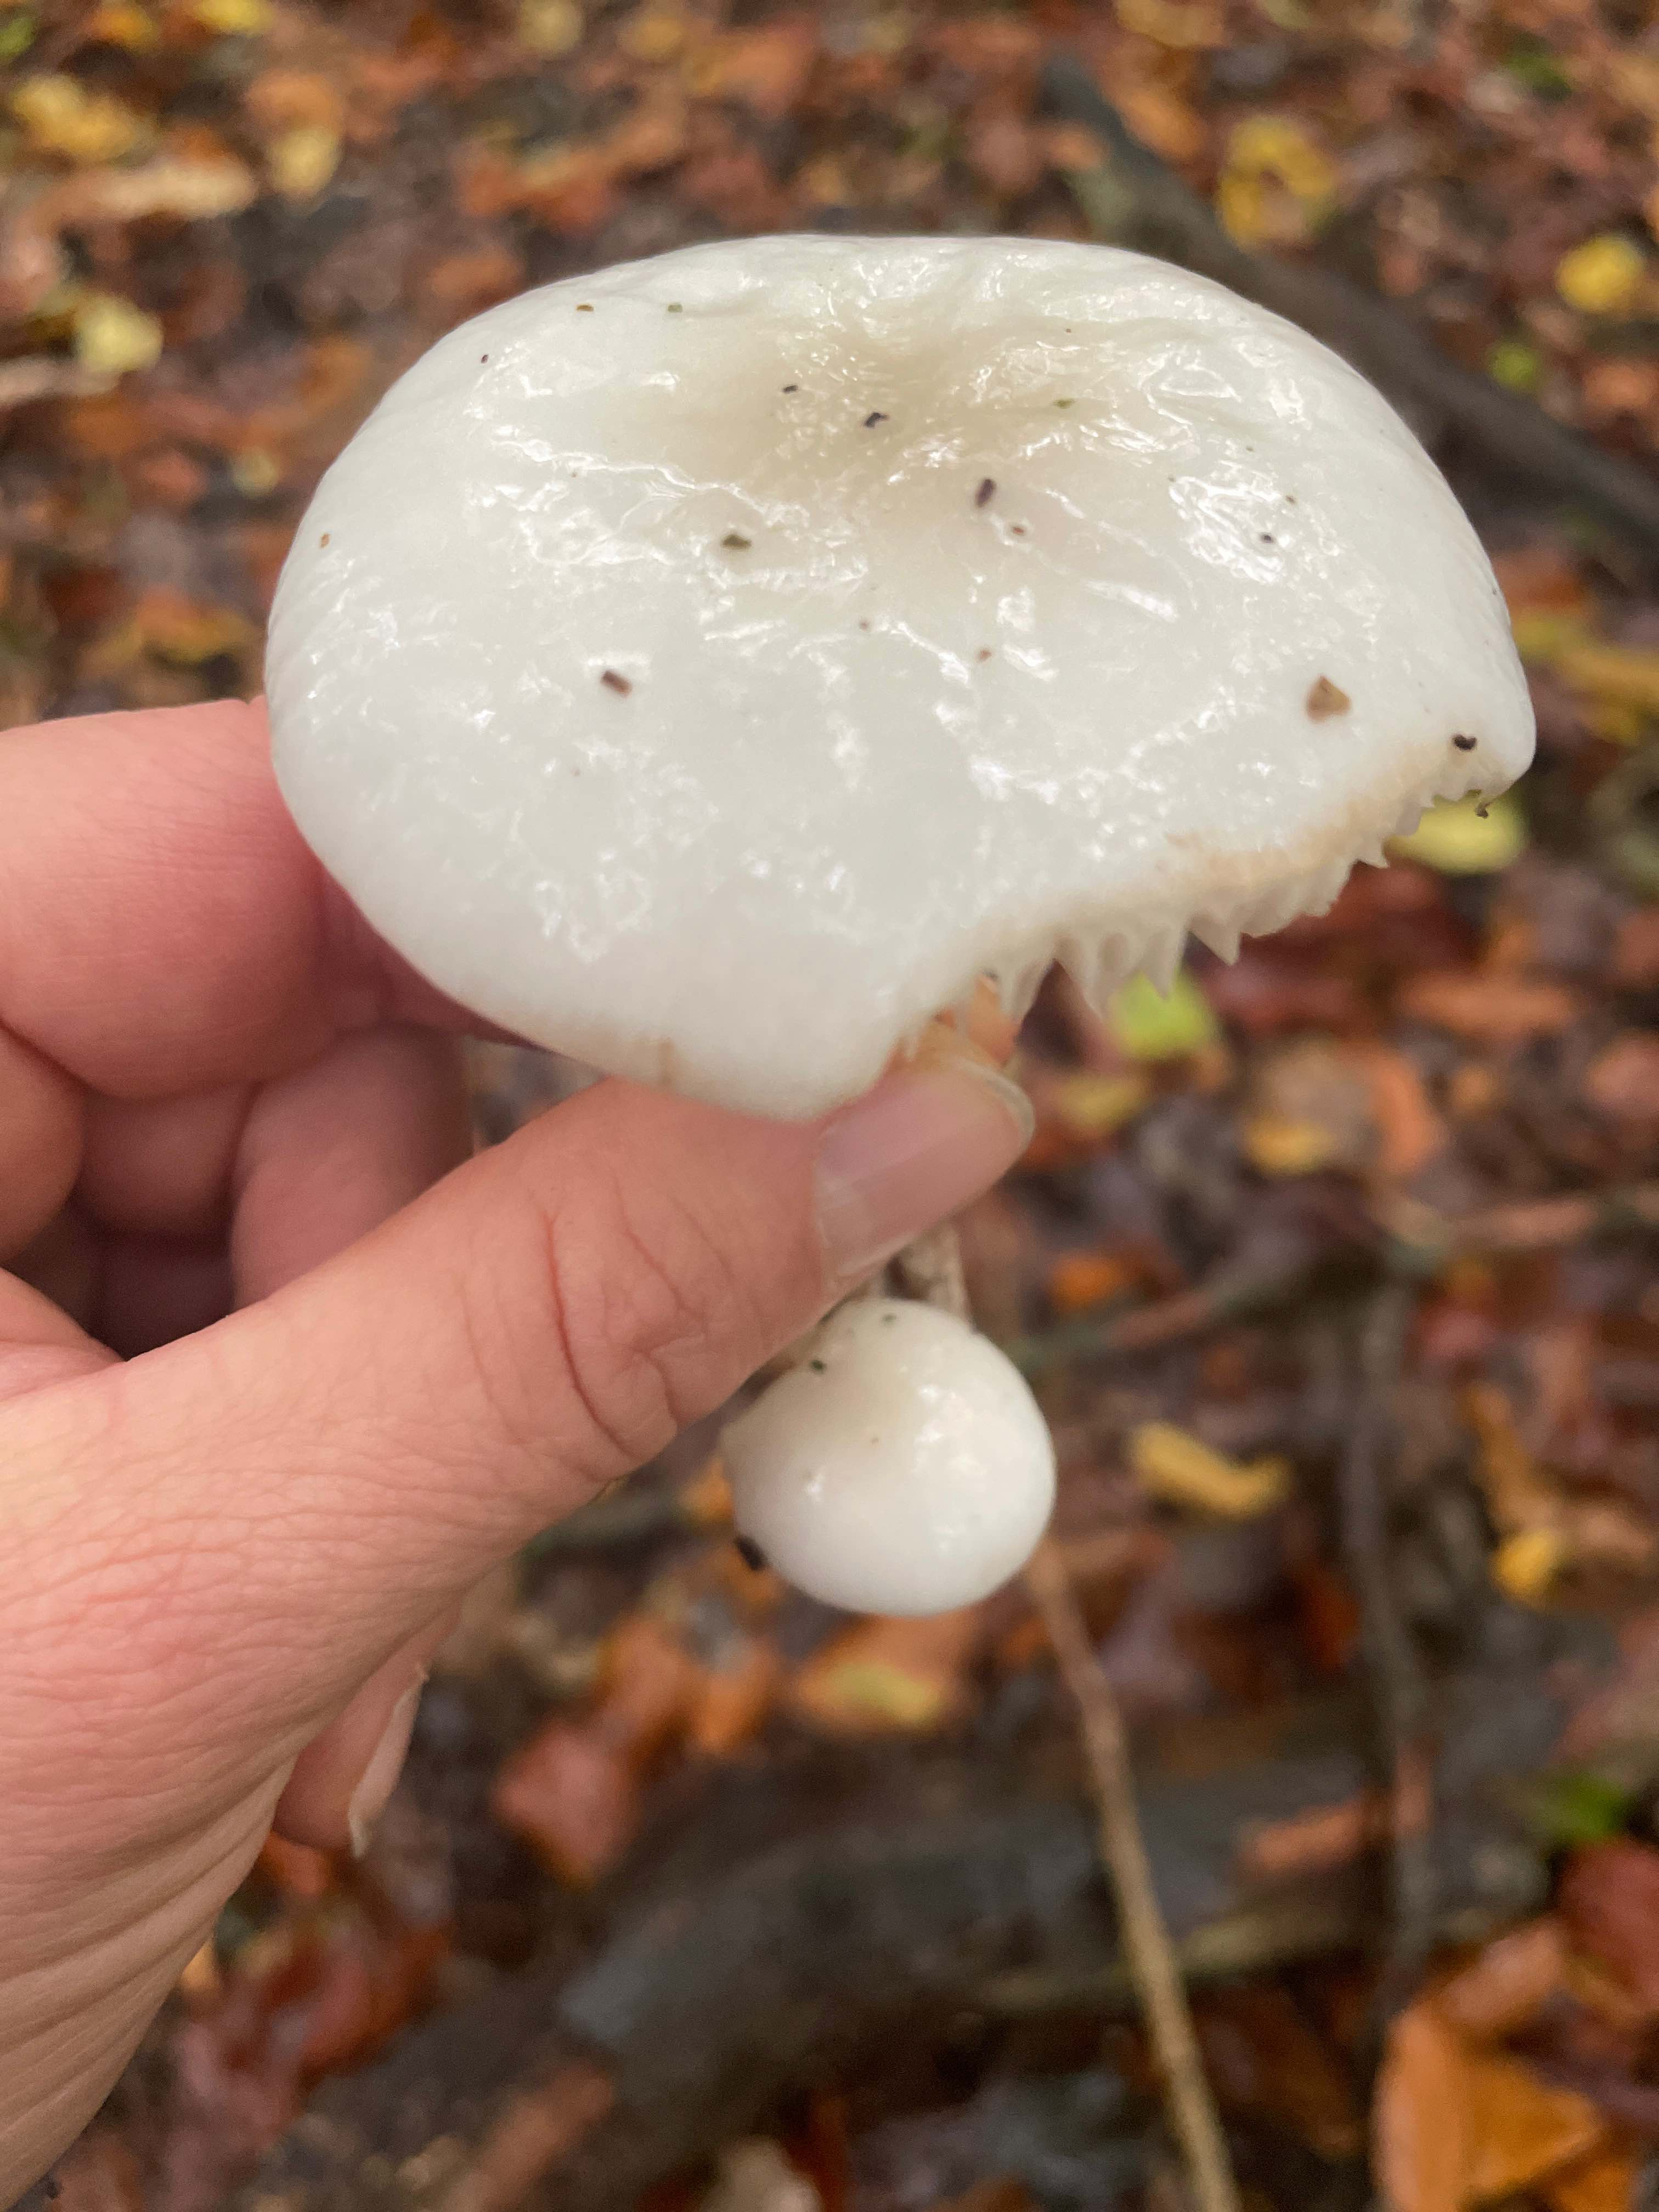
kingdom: Fungi
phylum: Basidiomycota
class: Agaricomycetes
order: Agaricales
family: Physalacriaceae
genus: Mucidula
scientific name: Mucidula mucida
